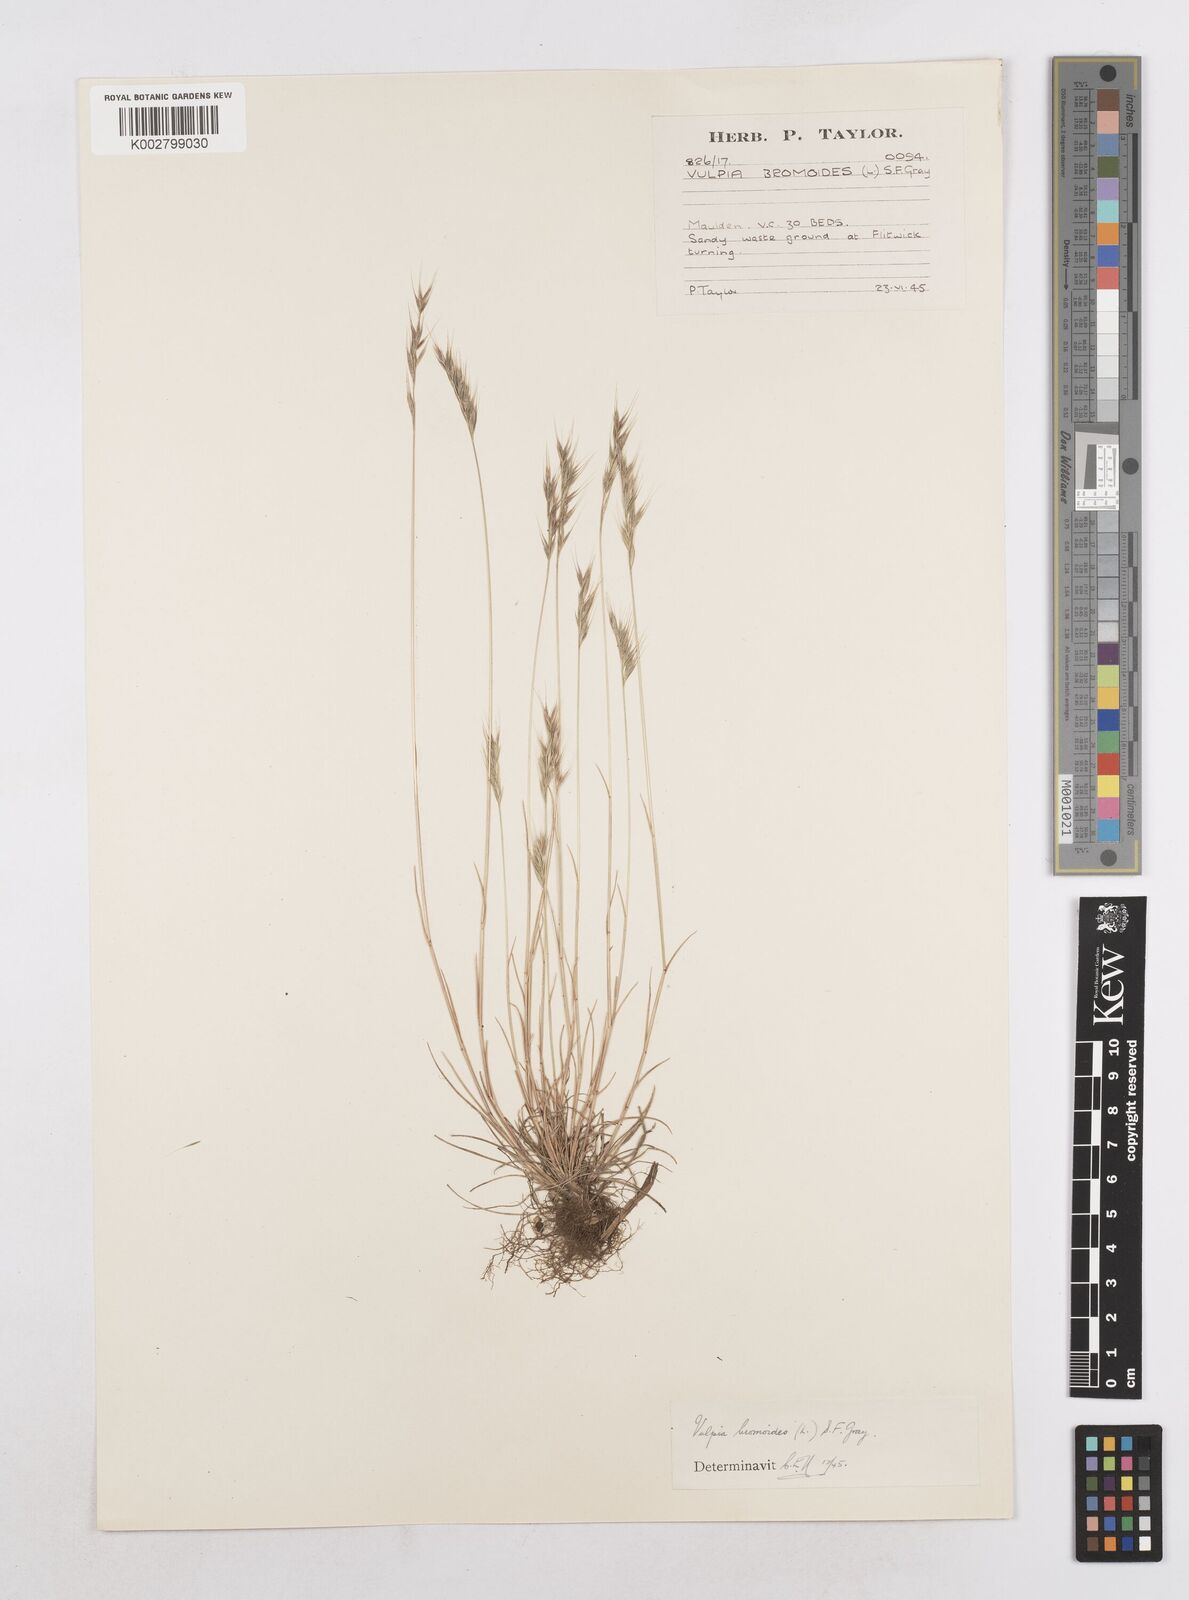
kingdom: Plantae
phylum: Tracheophyta
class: Liliopsida
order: Poales
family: Poaceae
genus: Festuca
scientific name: Festuca bromoides
